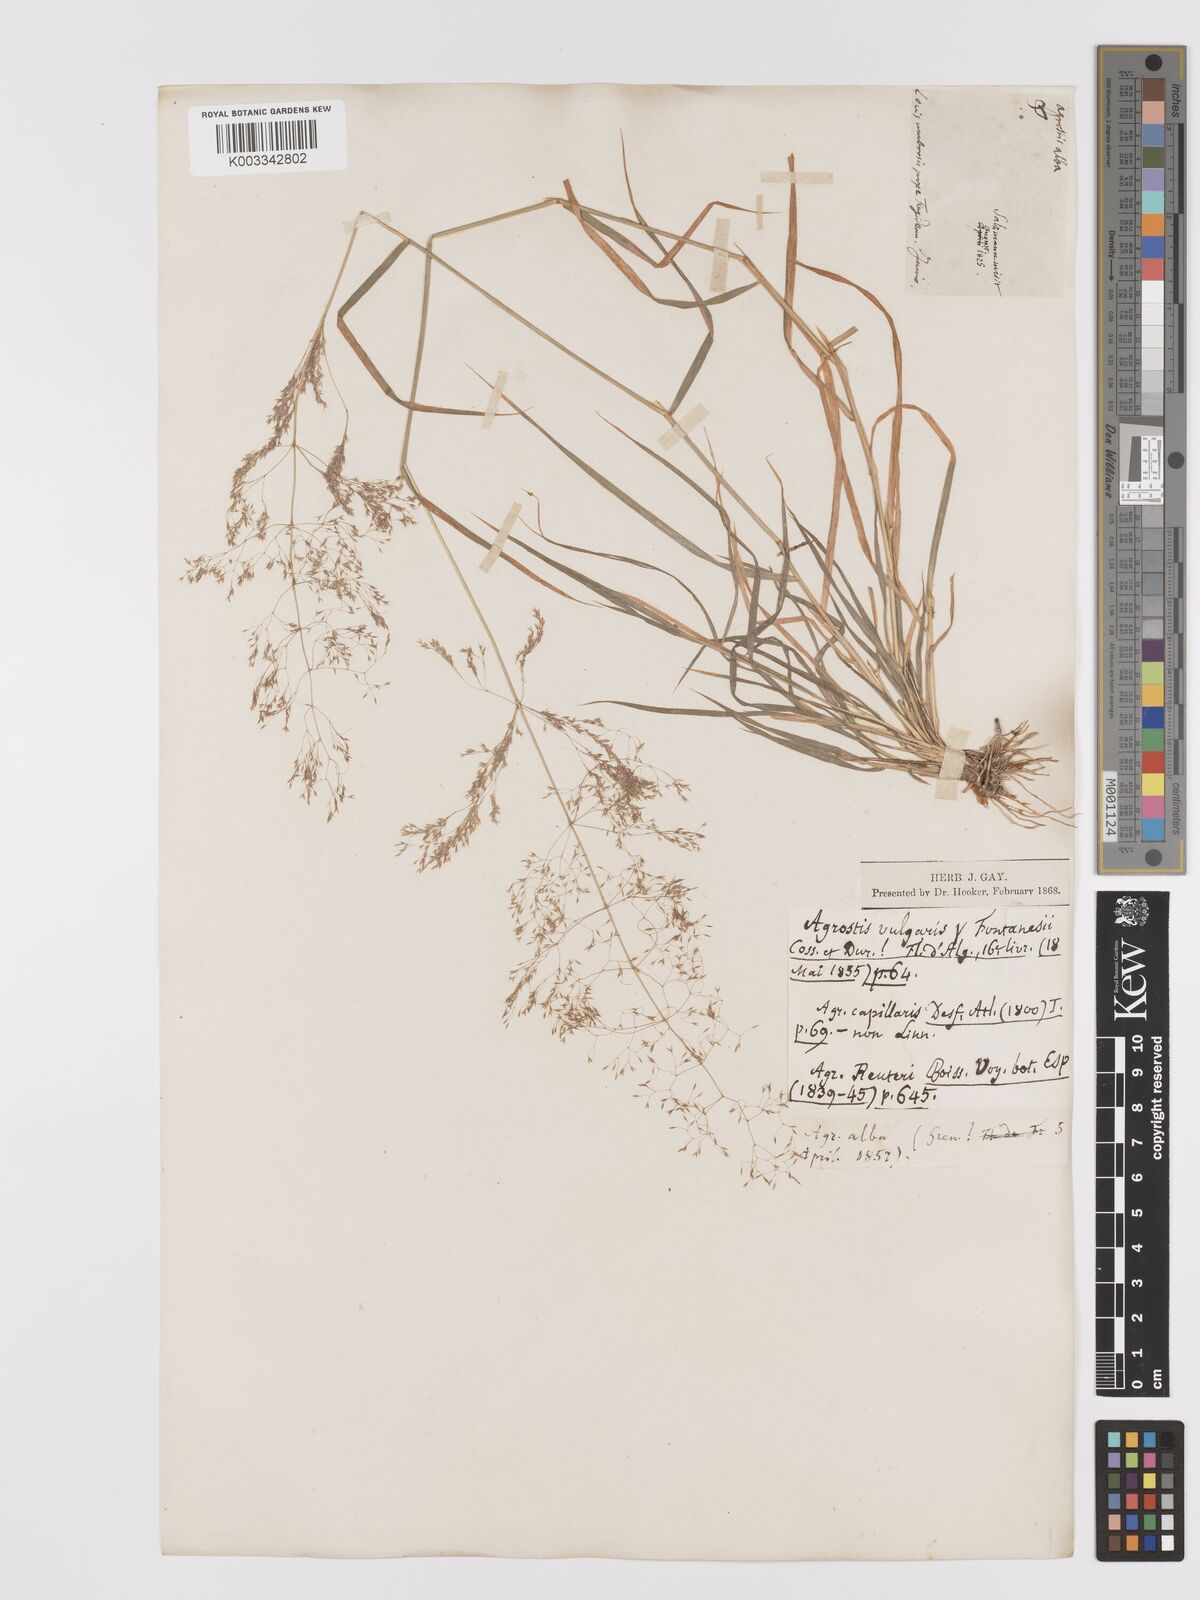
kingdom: Plantae
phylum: Tracheophyta
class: Liliopsida
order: Poales
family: Poaceae
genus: Agrostis
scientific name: Agrostis reuteri
